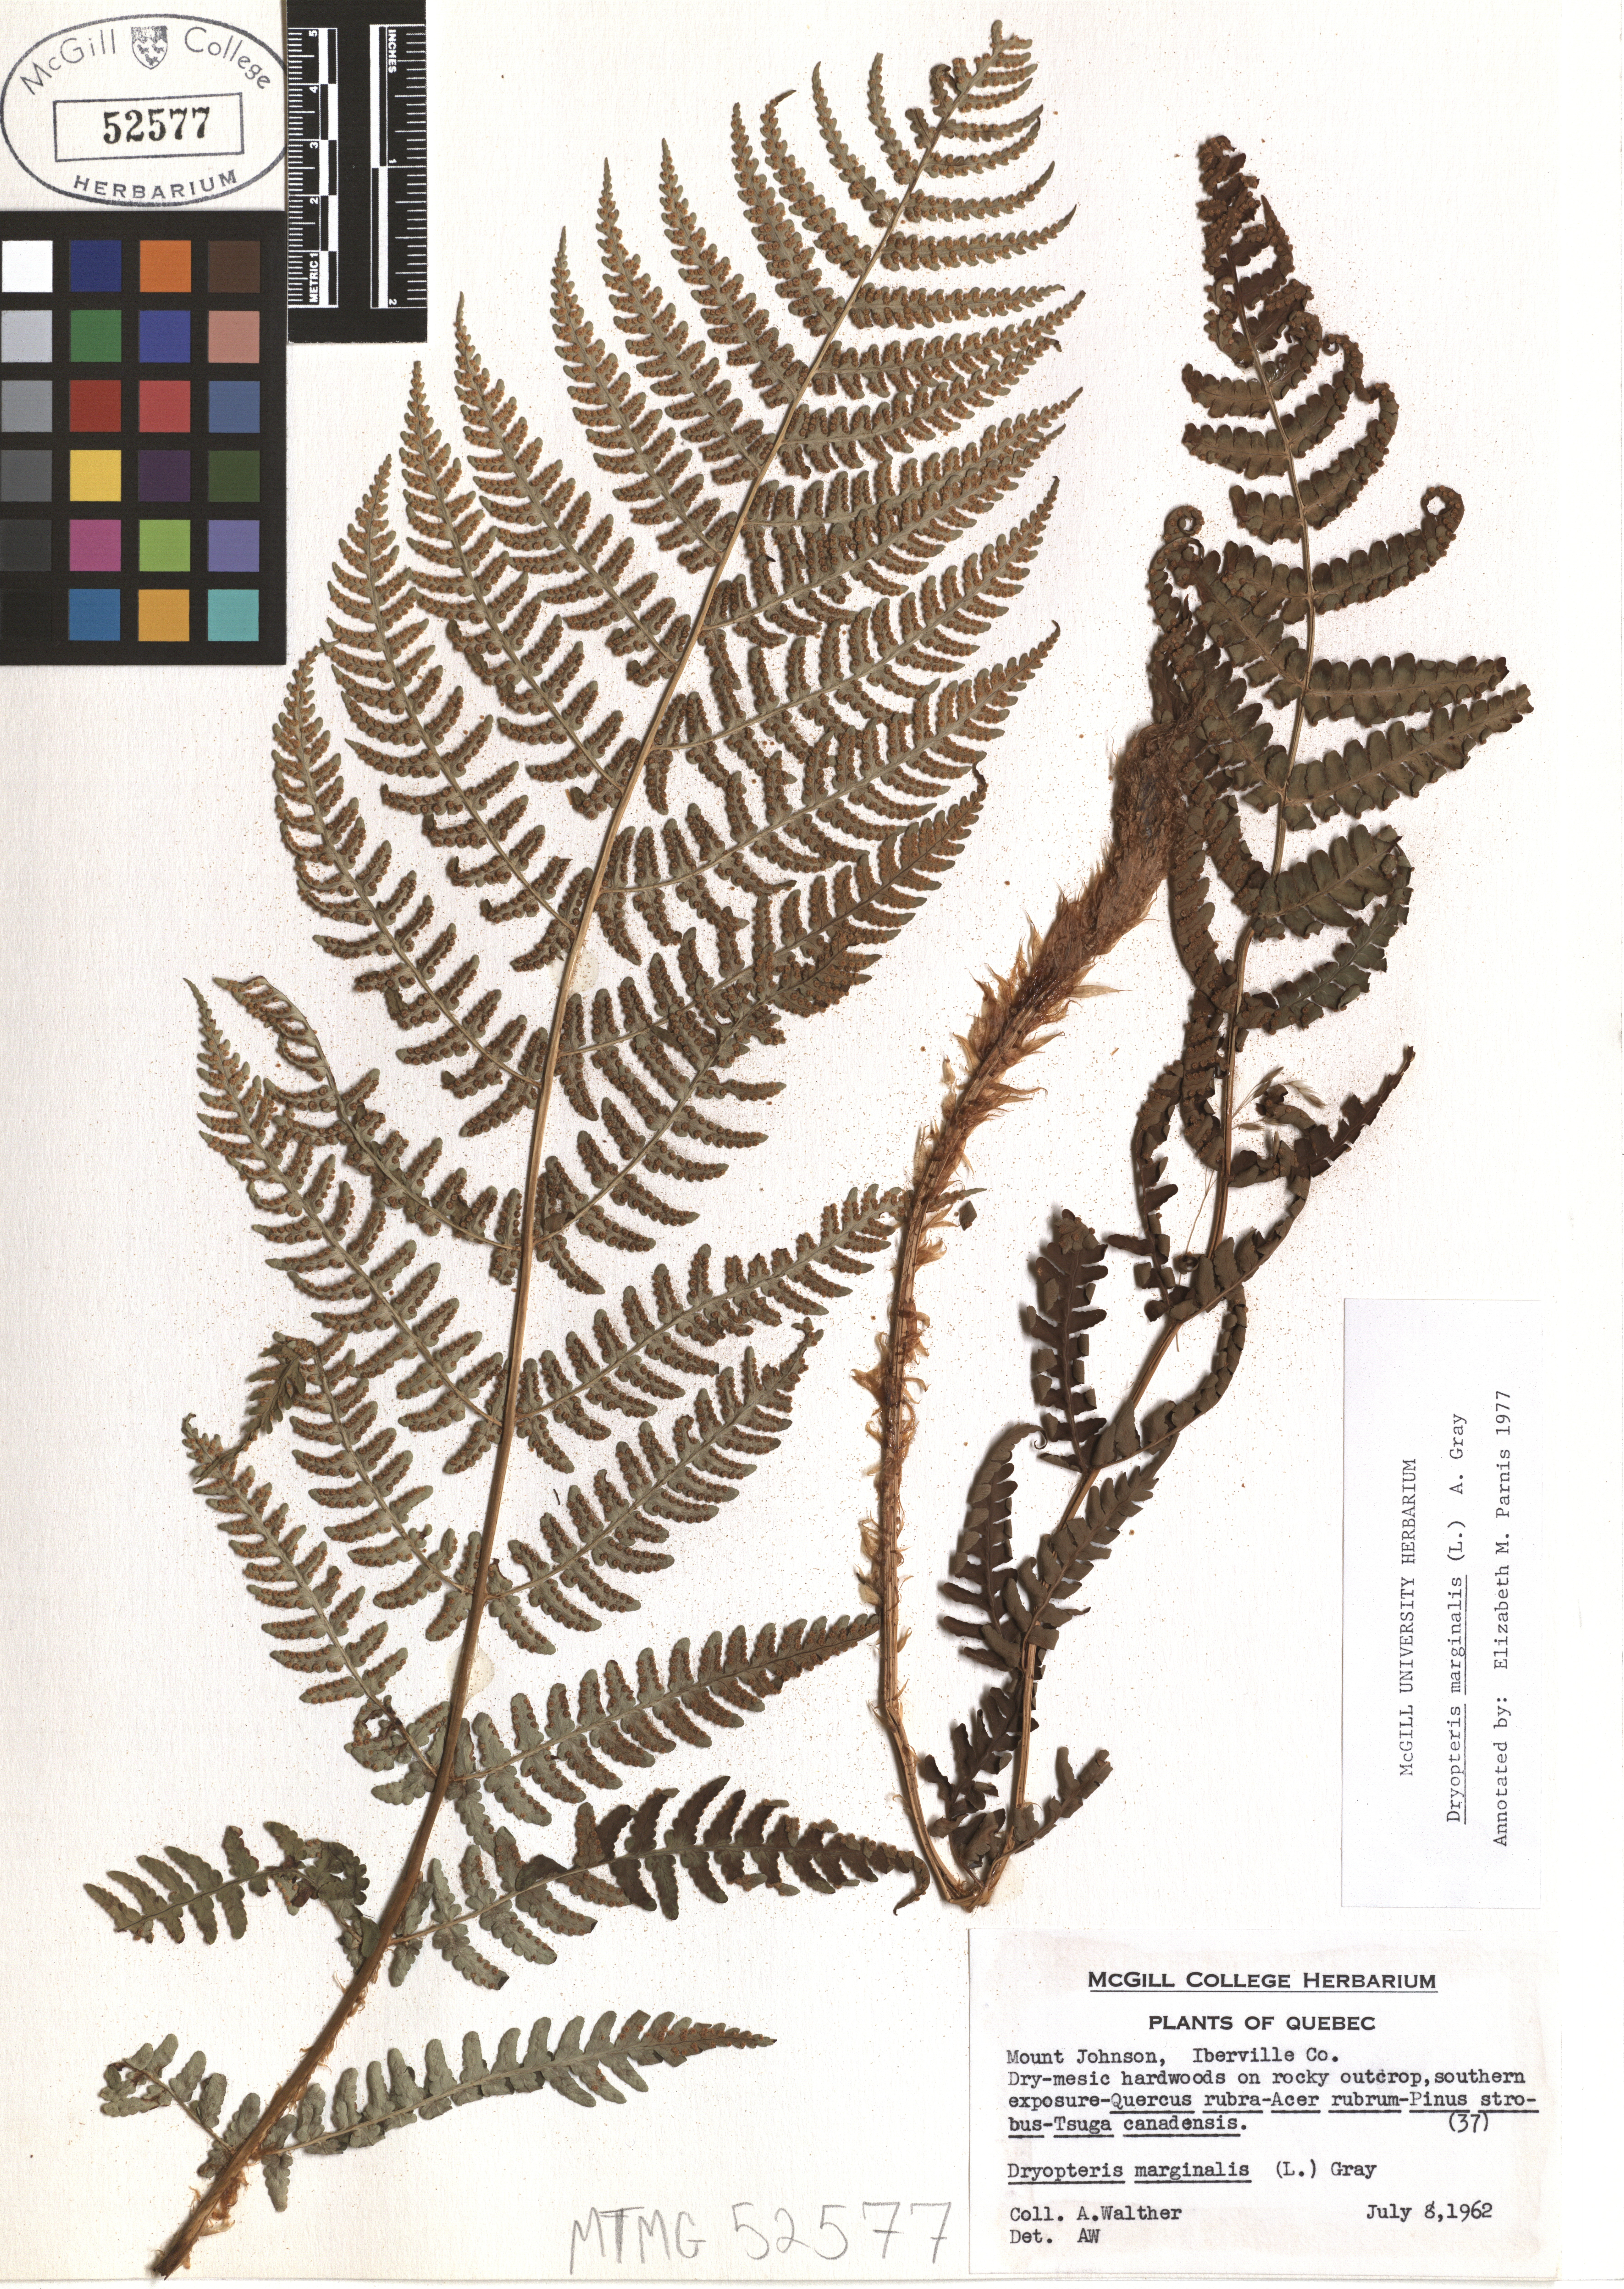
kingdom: Plantae
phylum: Tracheophyta
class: Polypodiopsida
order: Polypodiales
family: Dryopteridaceae
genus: Dryopteris
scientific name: Dryopteris marginalis
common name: Marginal wood fern
